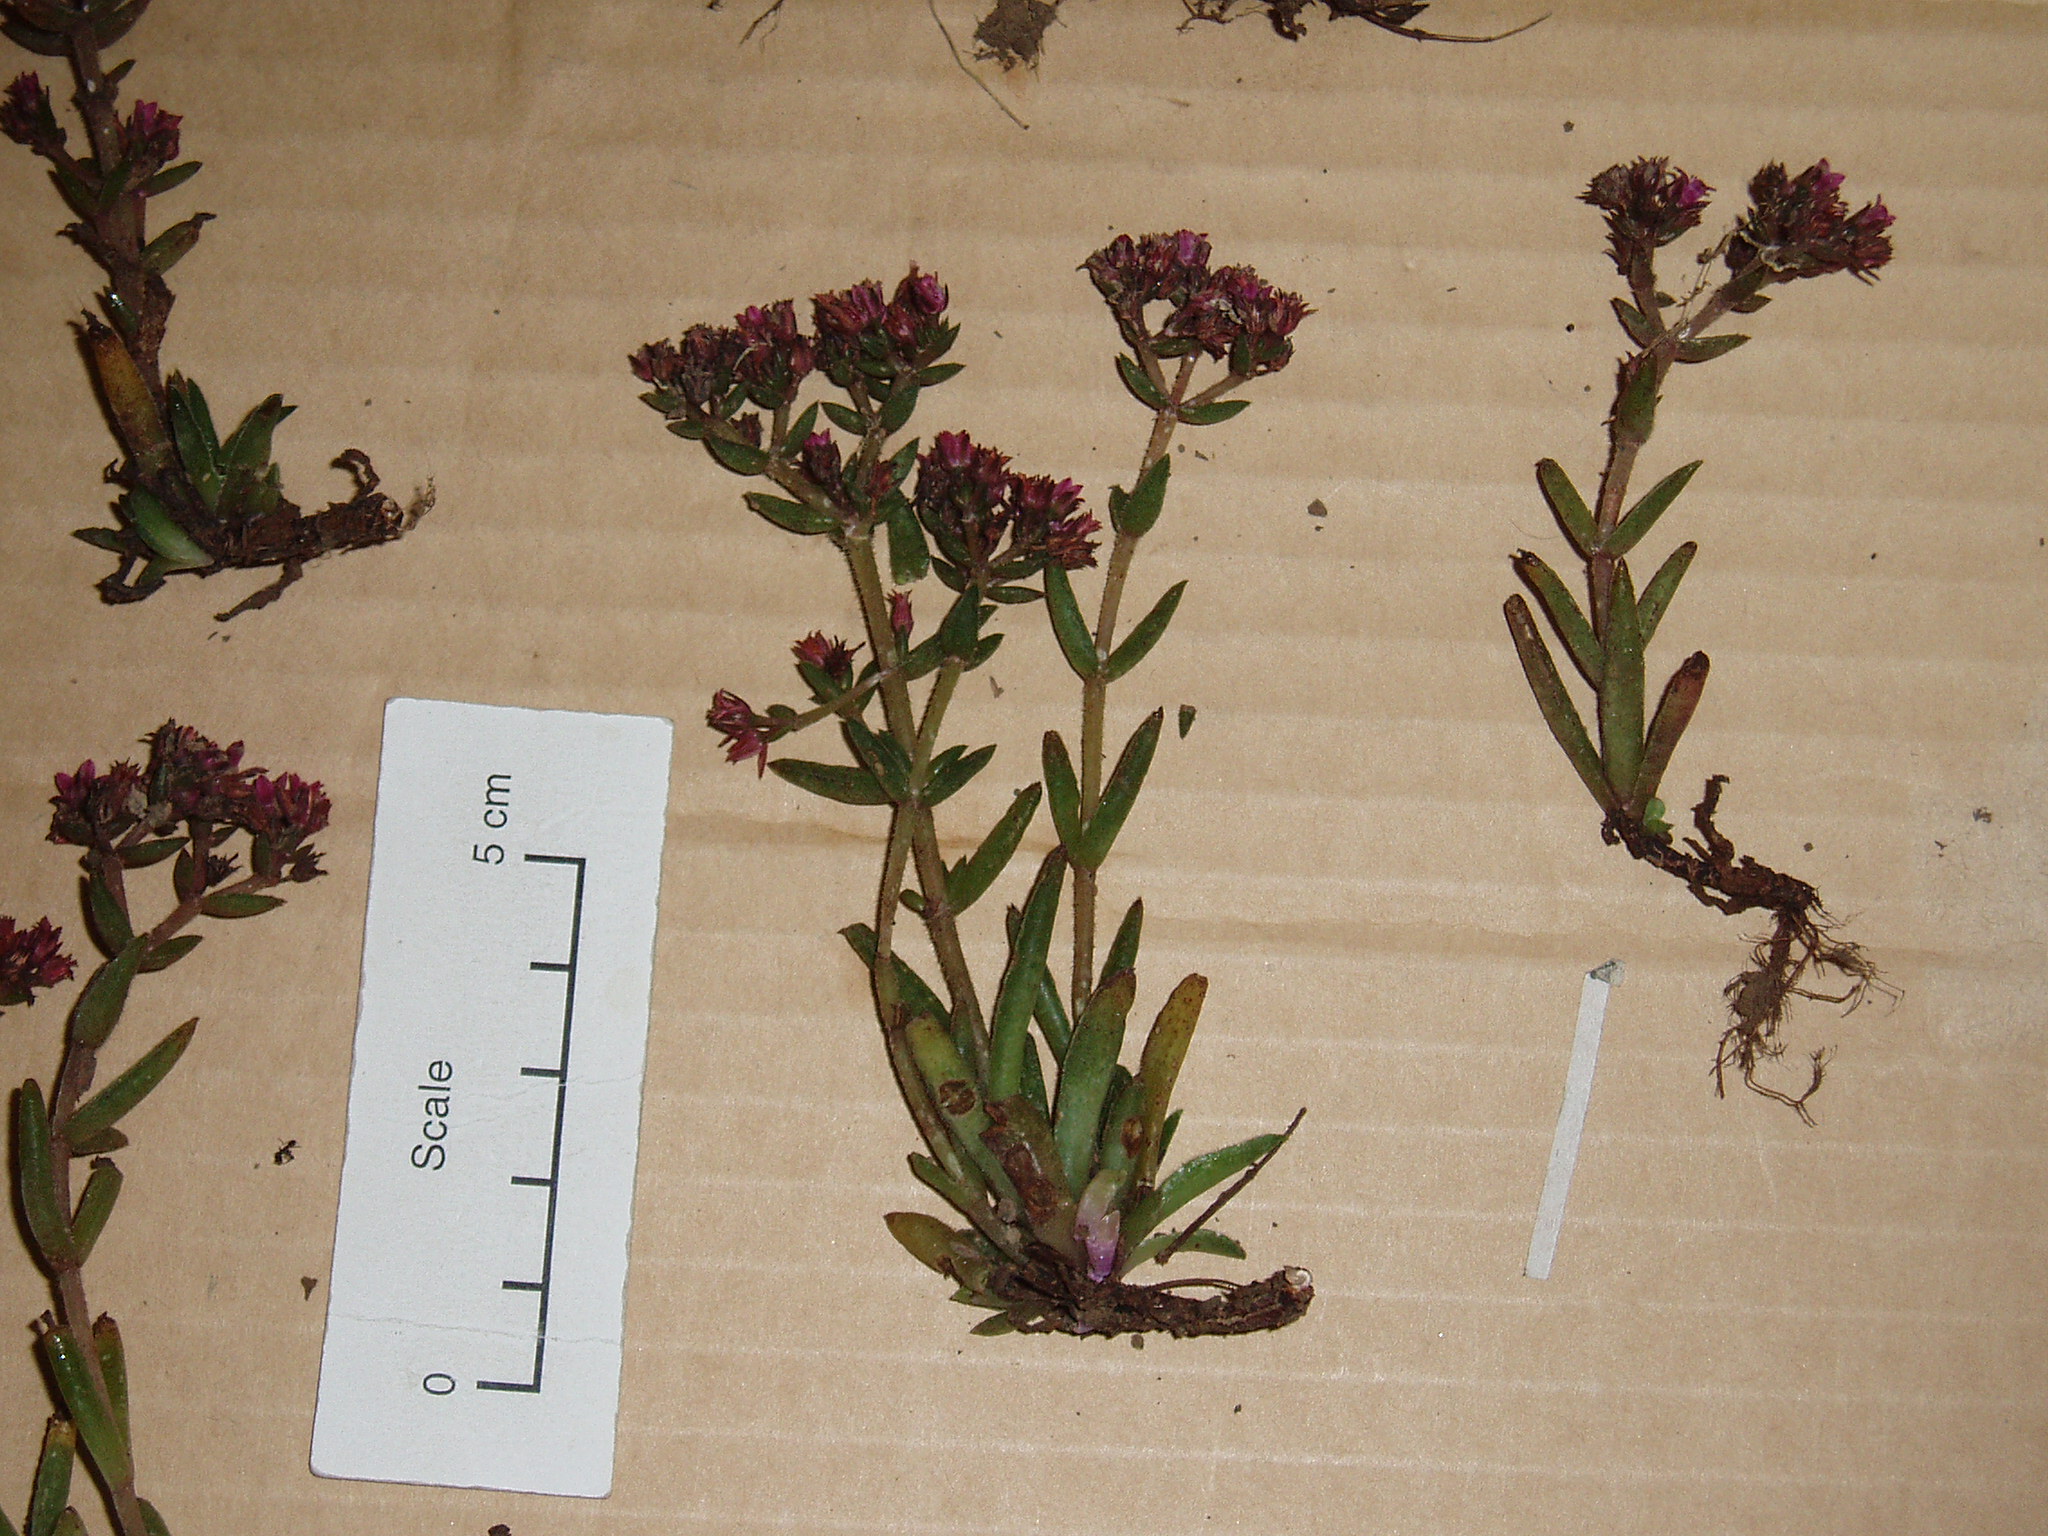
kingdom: Plantae
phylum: Tracheophyta
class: Magnoliopsida
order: Saxifragales
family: Crassulaceae
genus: Crassula
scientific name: Crassula exilis
